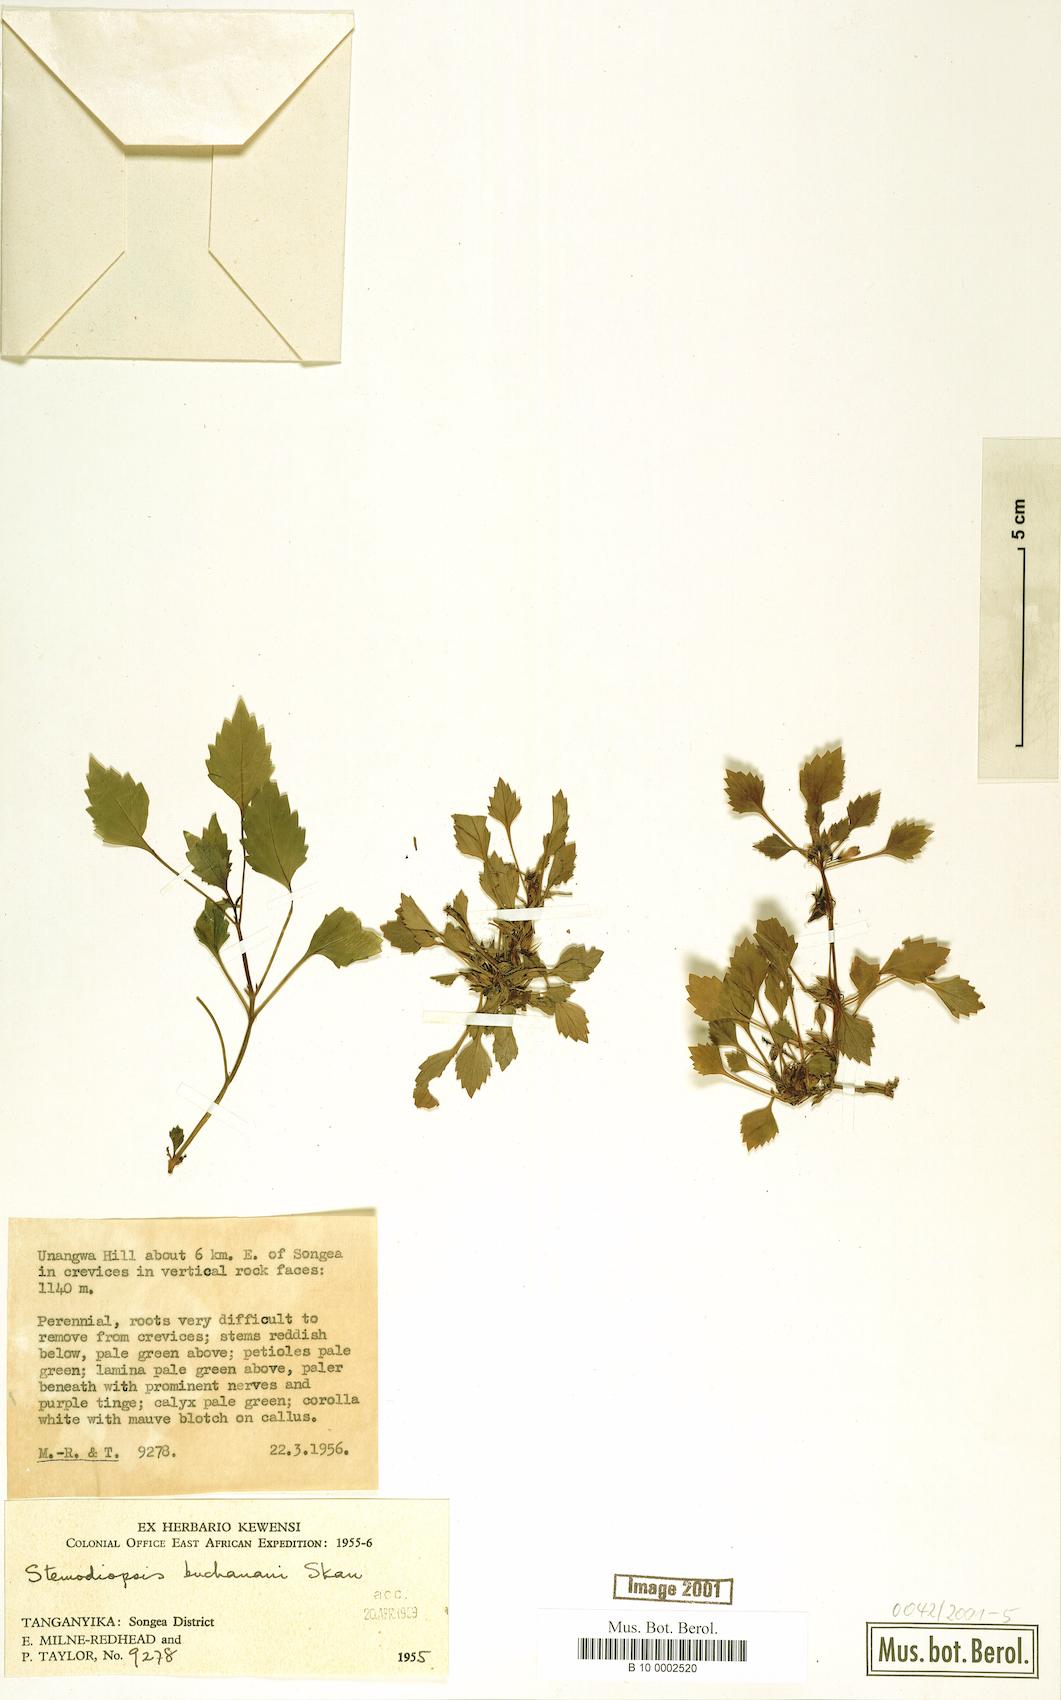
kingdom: Plantae
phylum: Tracheophyta
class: Magnoliopsida
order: Lamiales
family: Linderniaceae
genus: Stemodiopsis
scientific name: Stemodiopsis buchananii
